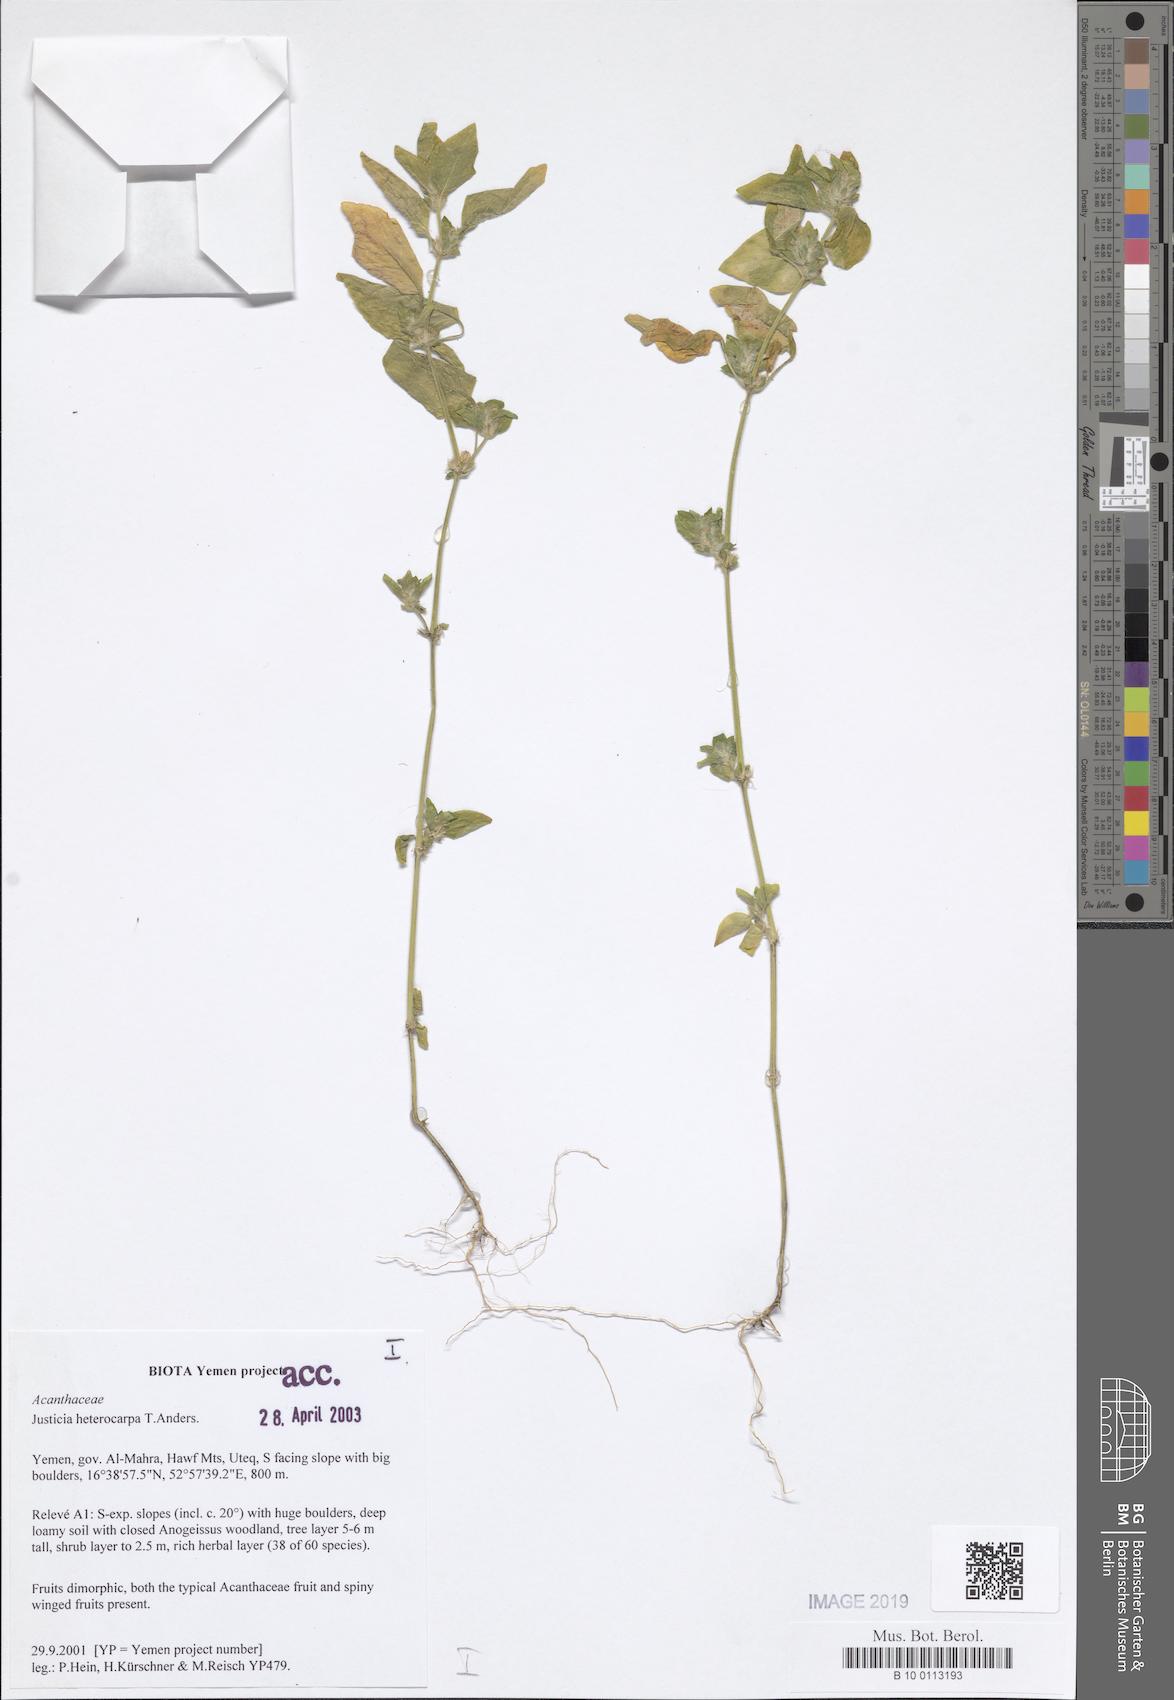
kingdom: Plantae
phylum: Tracheophyta
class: Magnoliopsida
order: Lamiales
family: Acanthaceae
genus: Justicia
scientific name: Justicia heterocarpa
